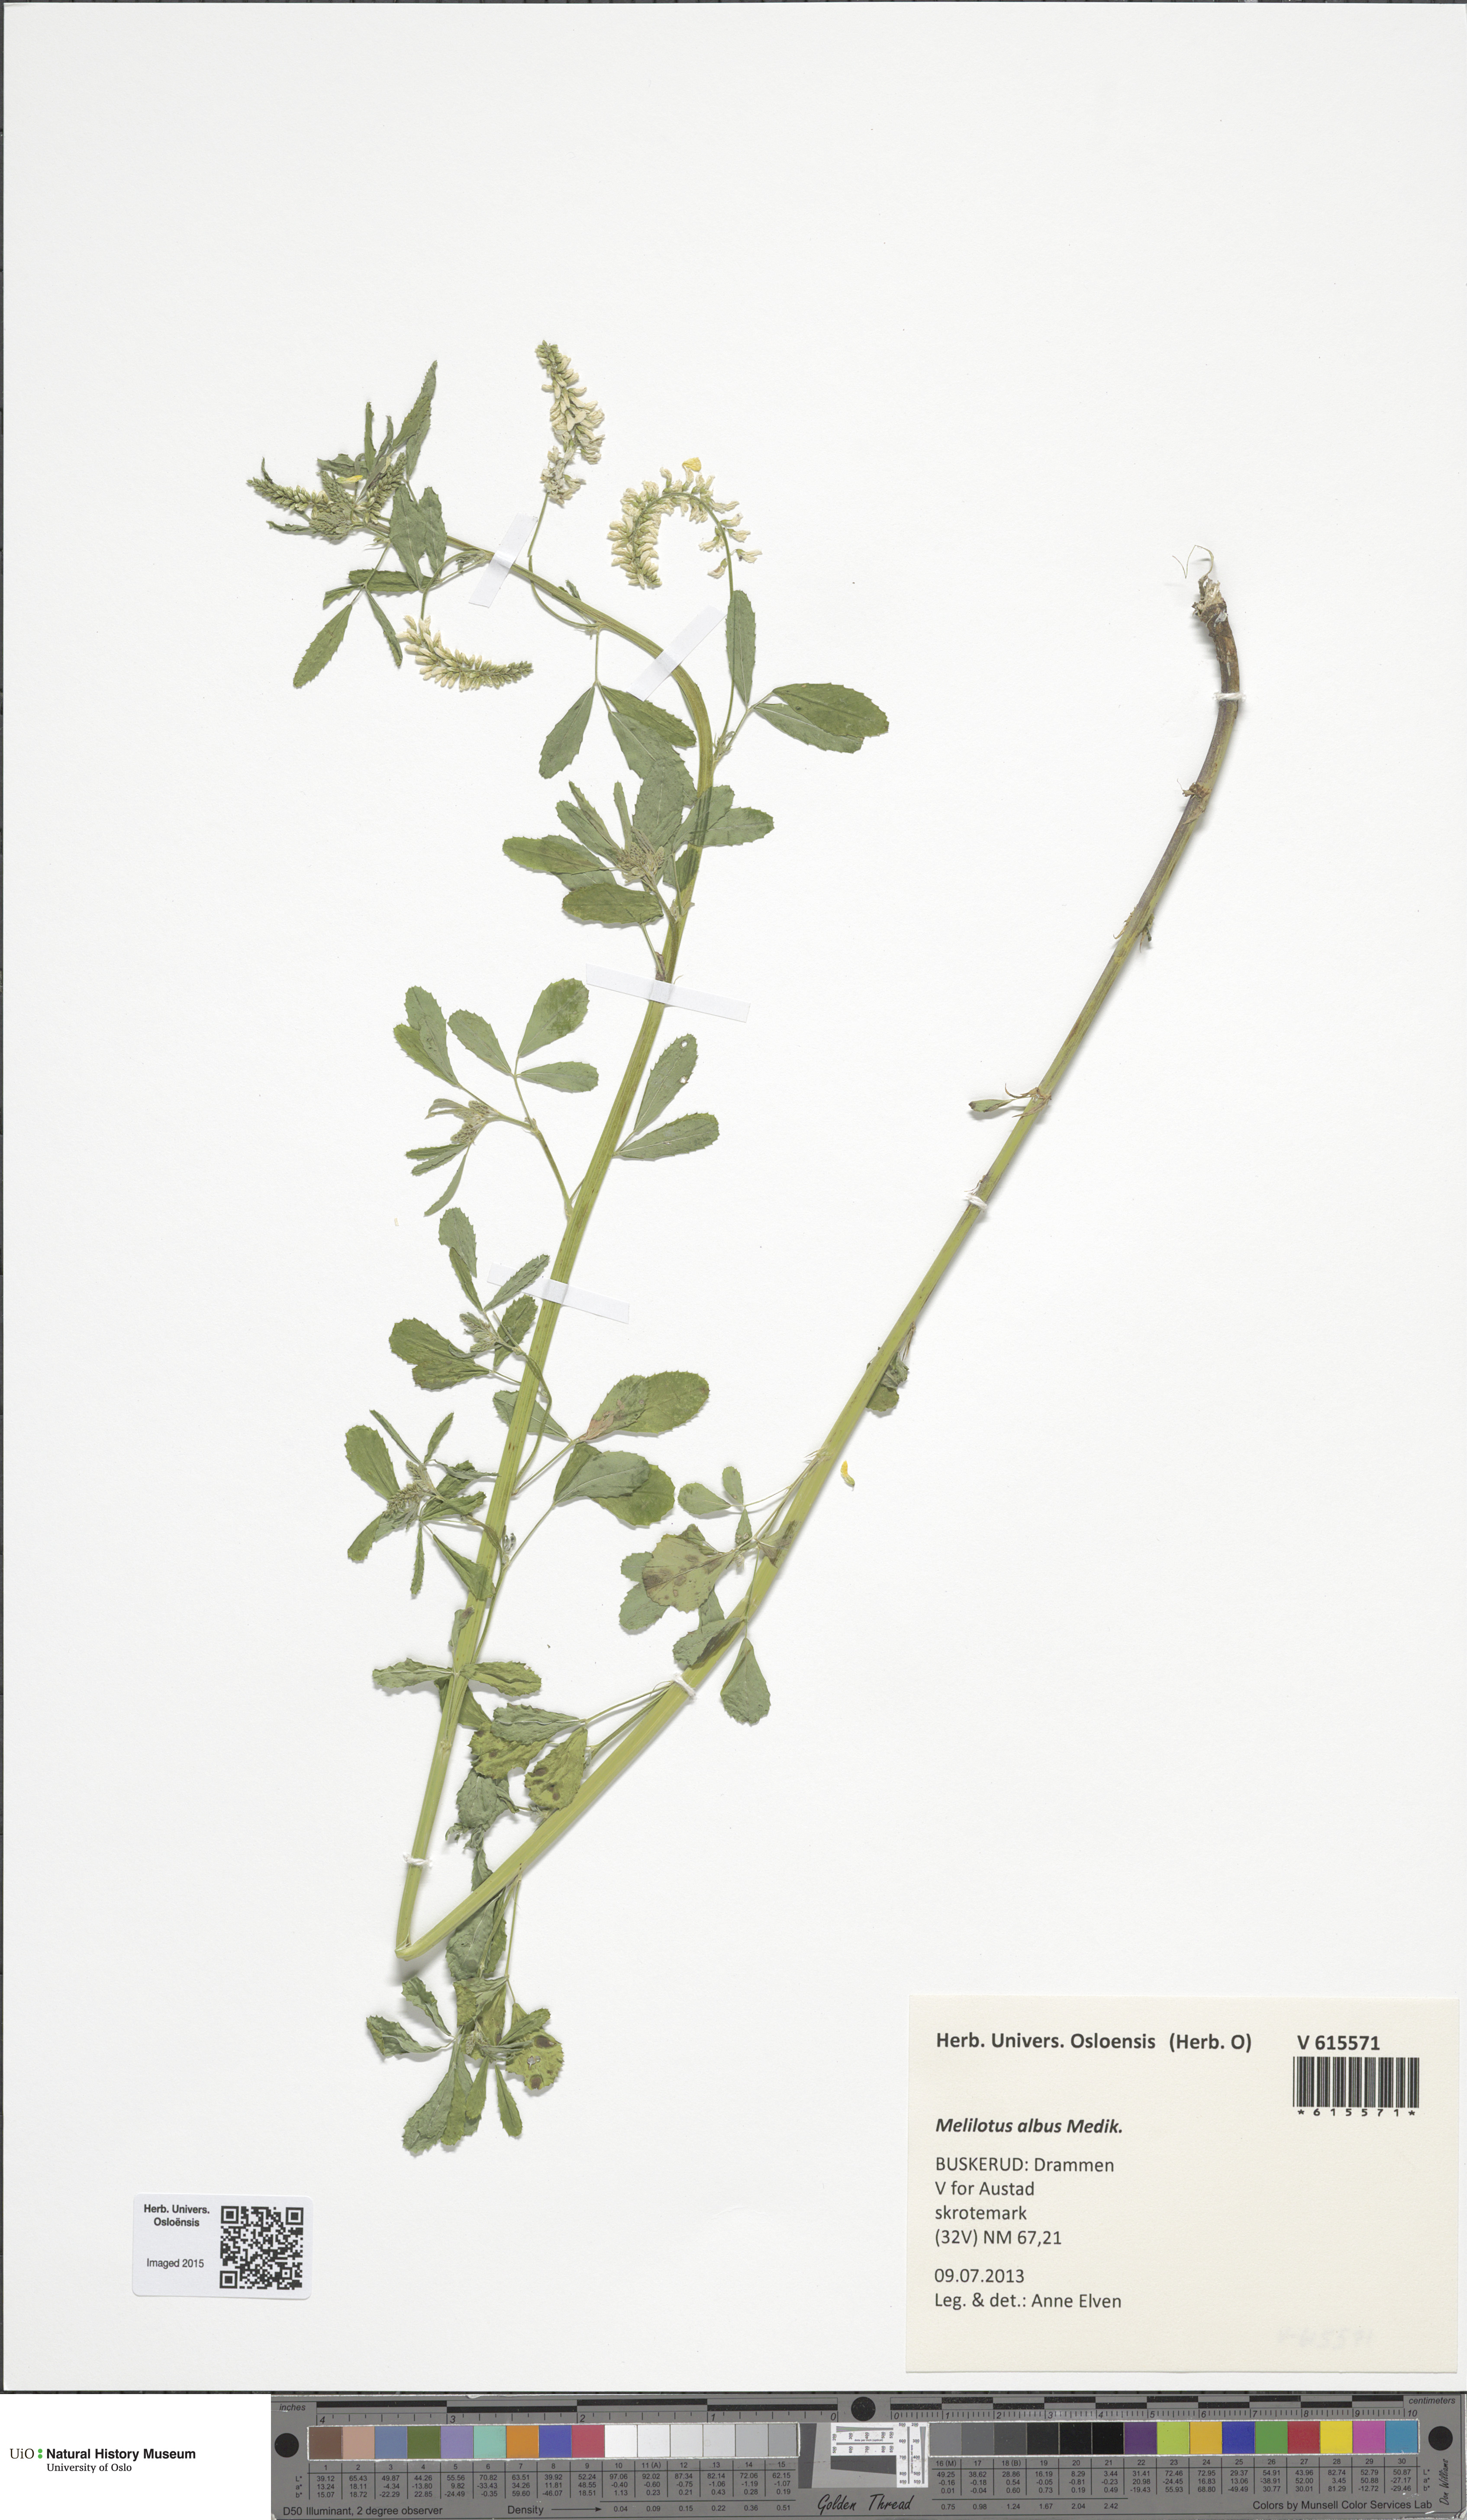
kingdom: Plantae
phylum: Tracheophyta
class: Magnoliopsida
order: Fabales
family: Fabaceae
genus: Melilotus
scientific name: Melilotus albus
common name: White melilot
